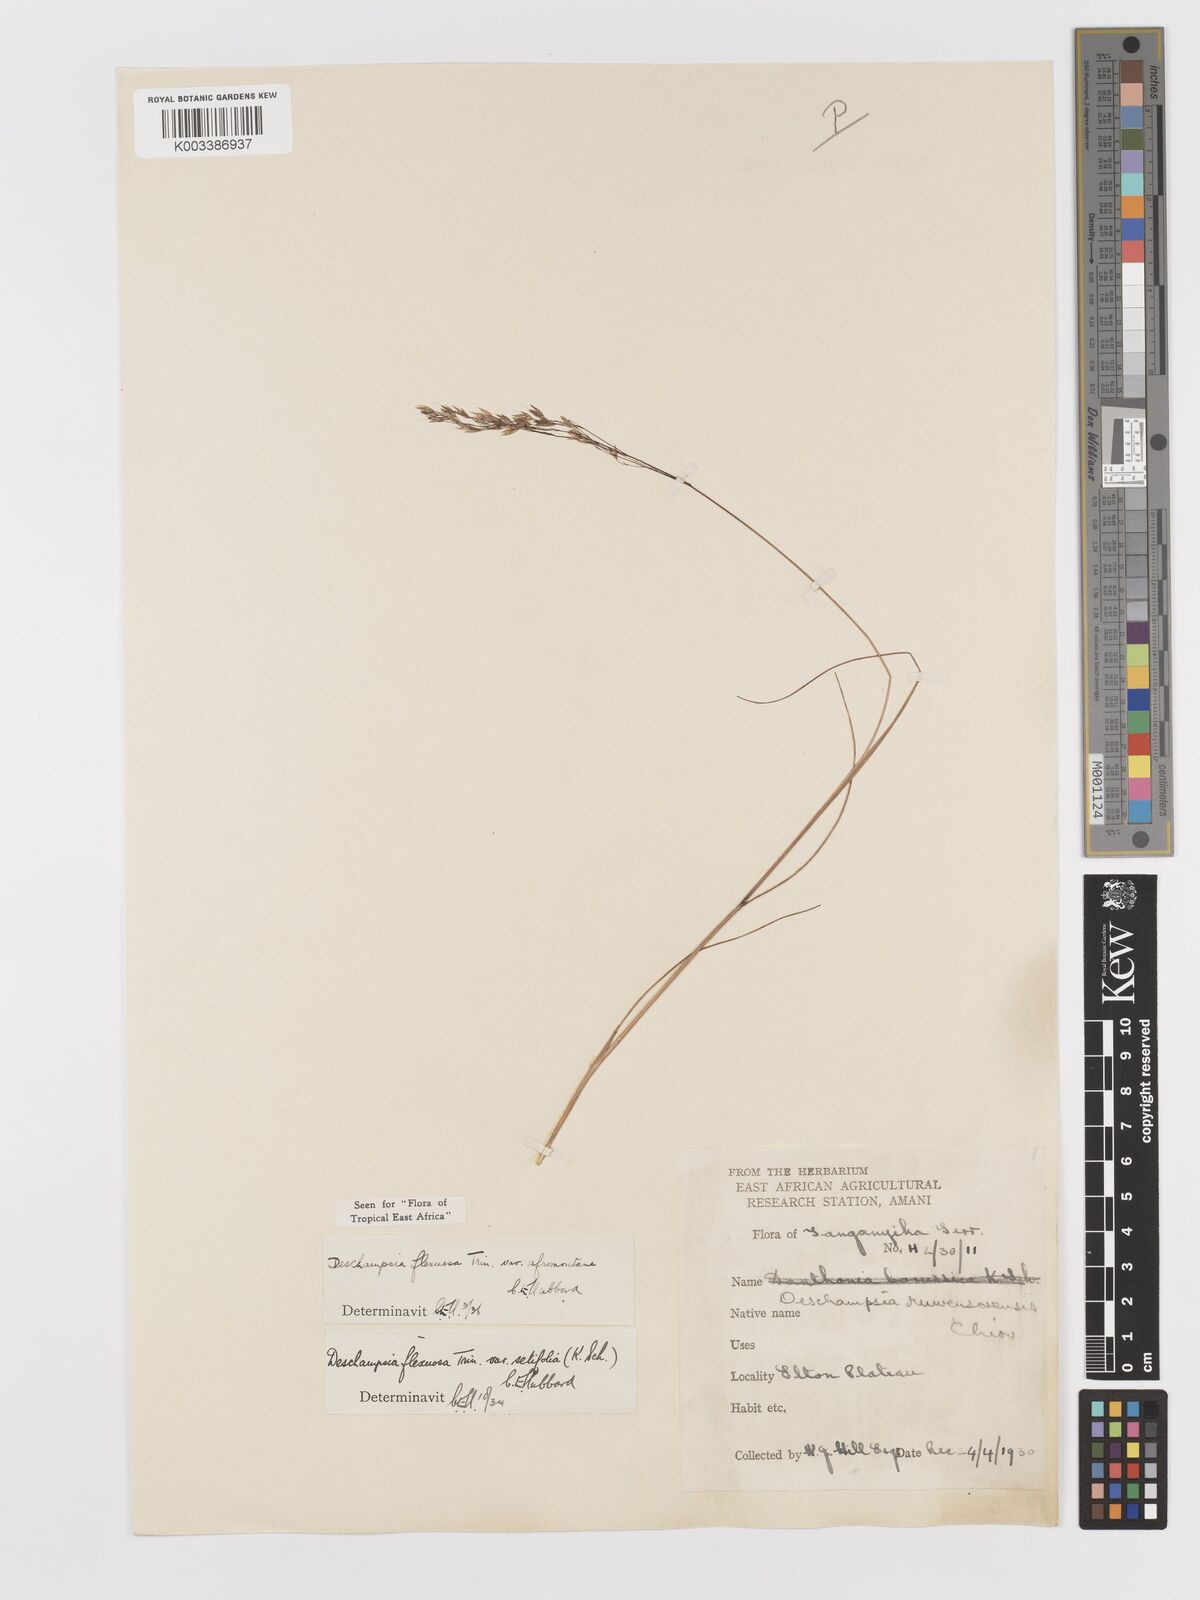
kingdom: Plantae
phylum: Tracheophyta
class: Liliopsida
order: Poales
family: Poaceae
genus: Avenella
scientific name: Avenella flexuosa
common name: Wavy hairgrass
